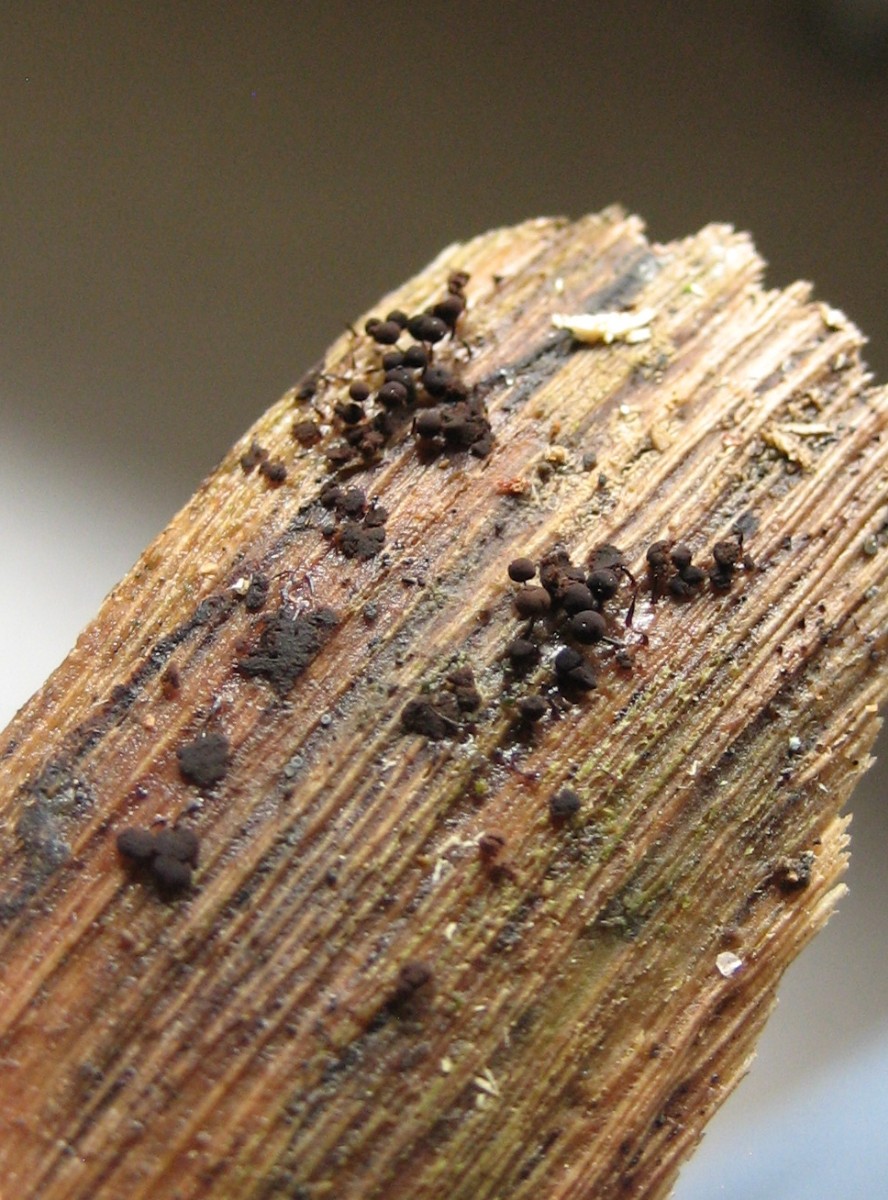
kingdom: Protozoa
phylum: Mycetozoa
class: Myxomycetes
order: Stemonitidales
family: Stemonitidaceae
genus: Enerthenema
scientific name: Enerthenema papillatum
